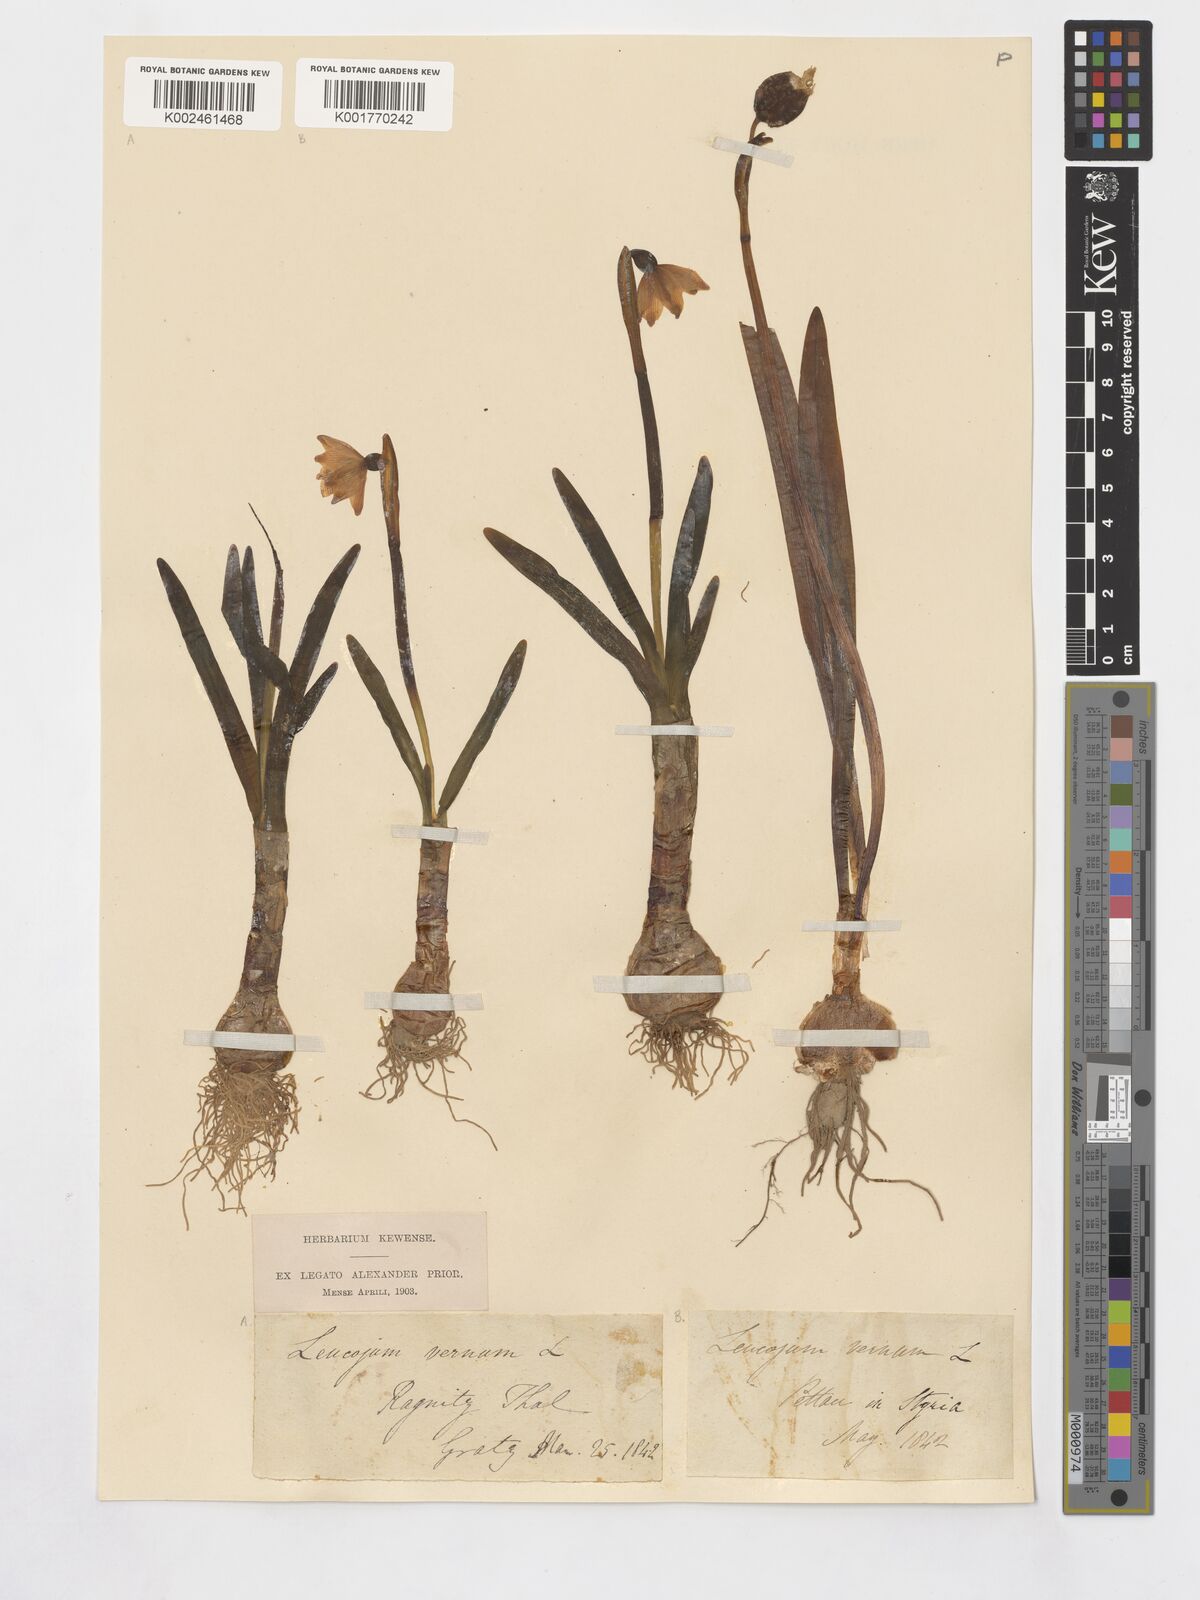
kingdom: Plantae
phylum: Tracheophyta
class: Liliopsida
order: Asparagales
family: Amaryllidaceae
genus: Leucojum
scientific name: Leucojum vernum
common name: Spring snowflake
